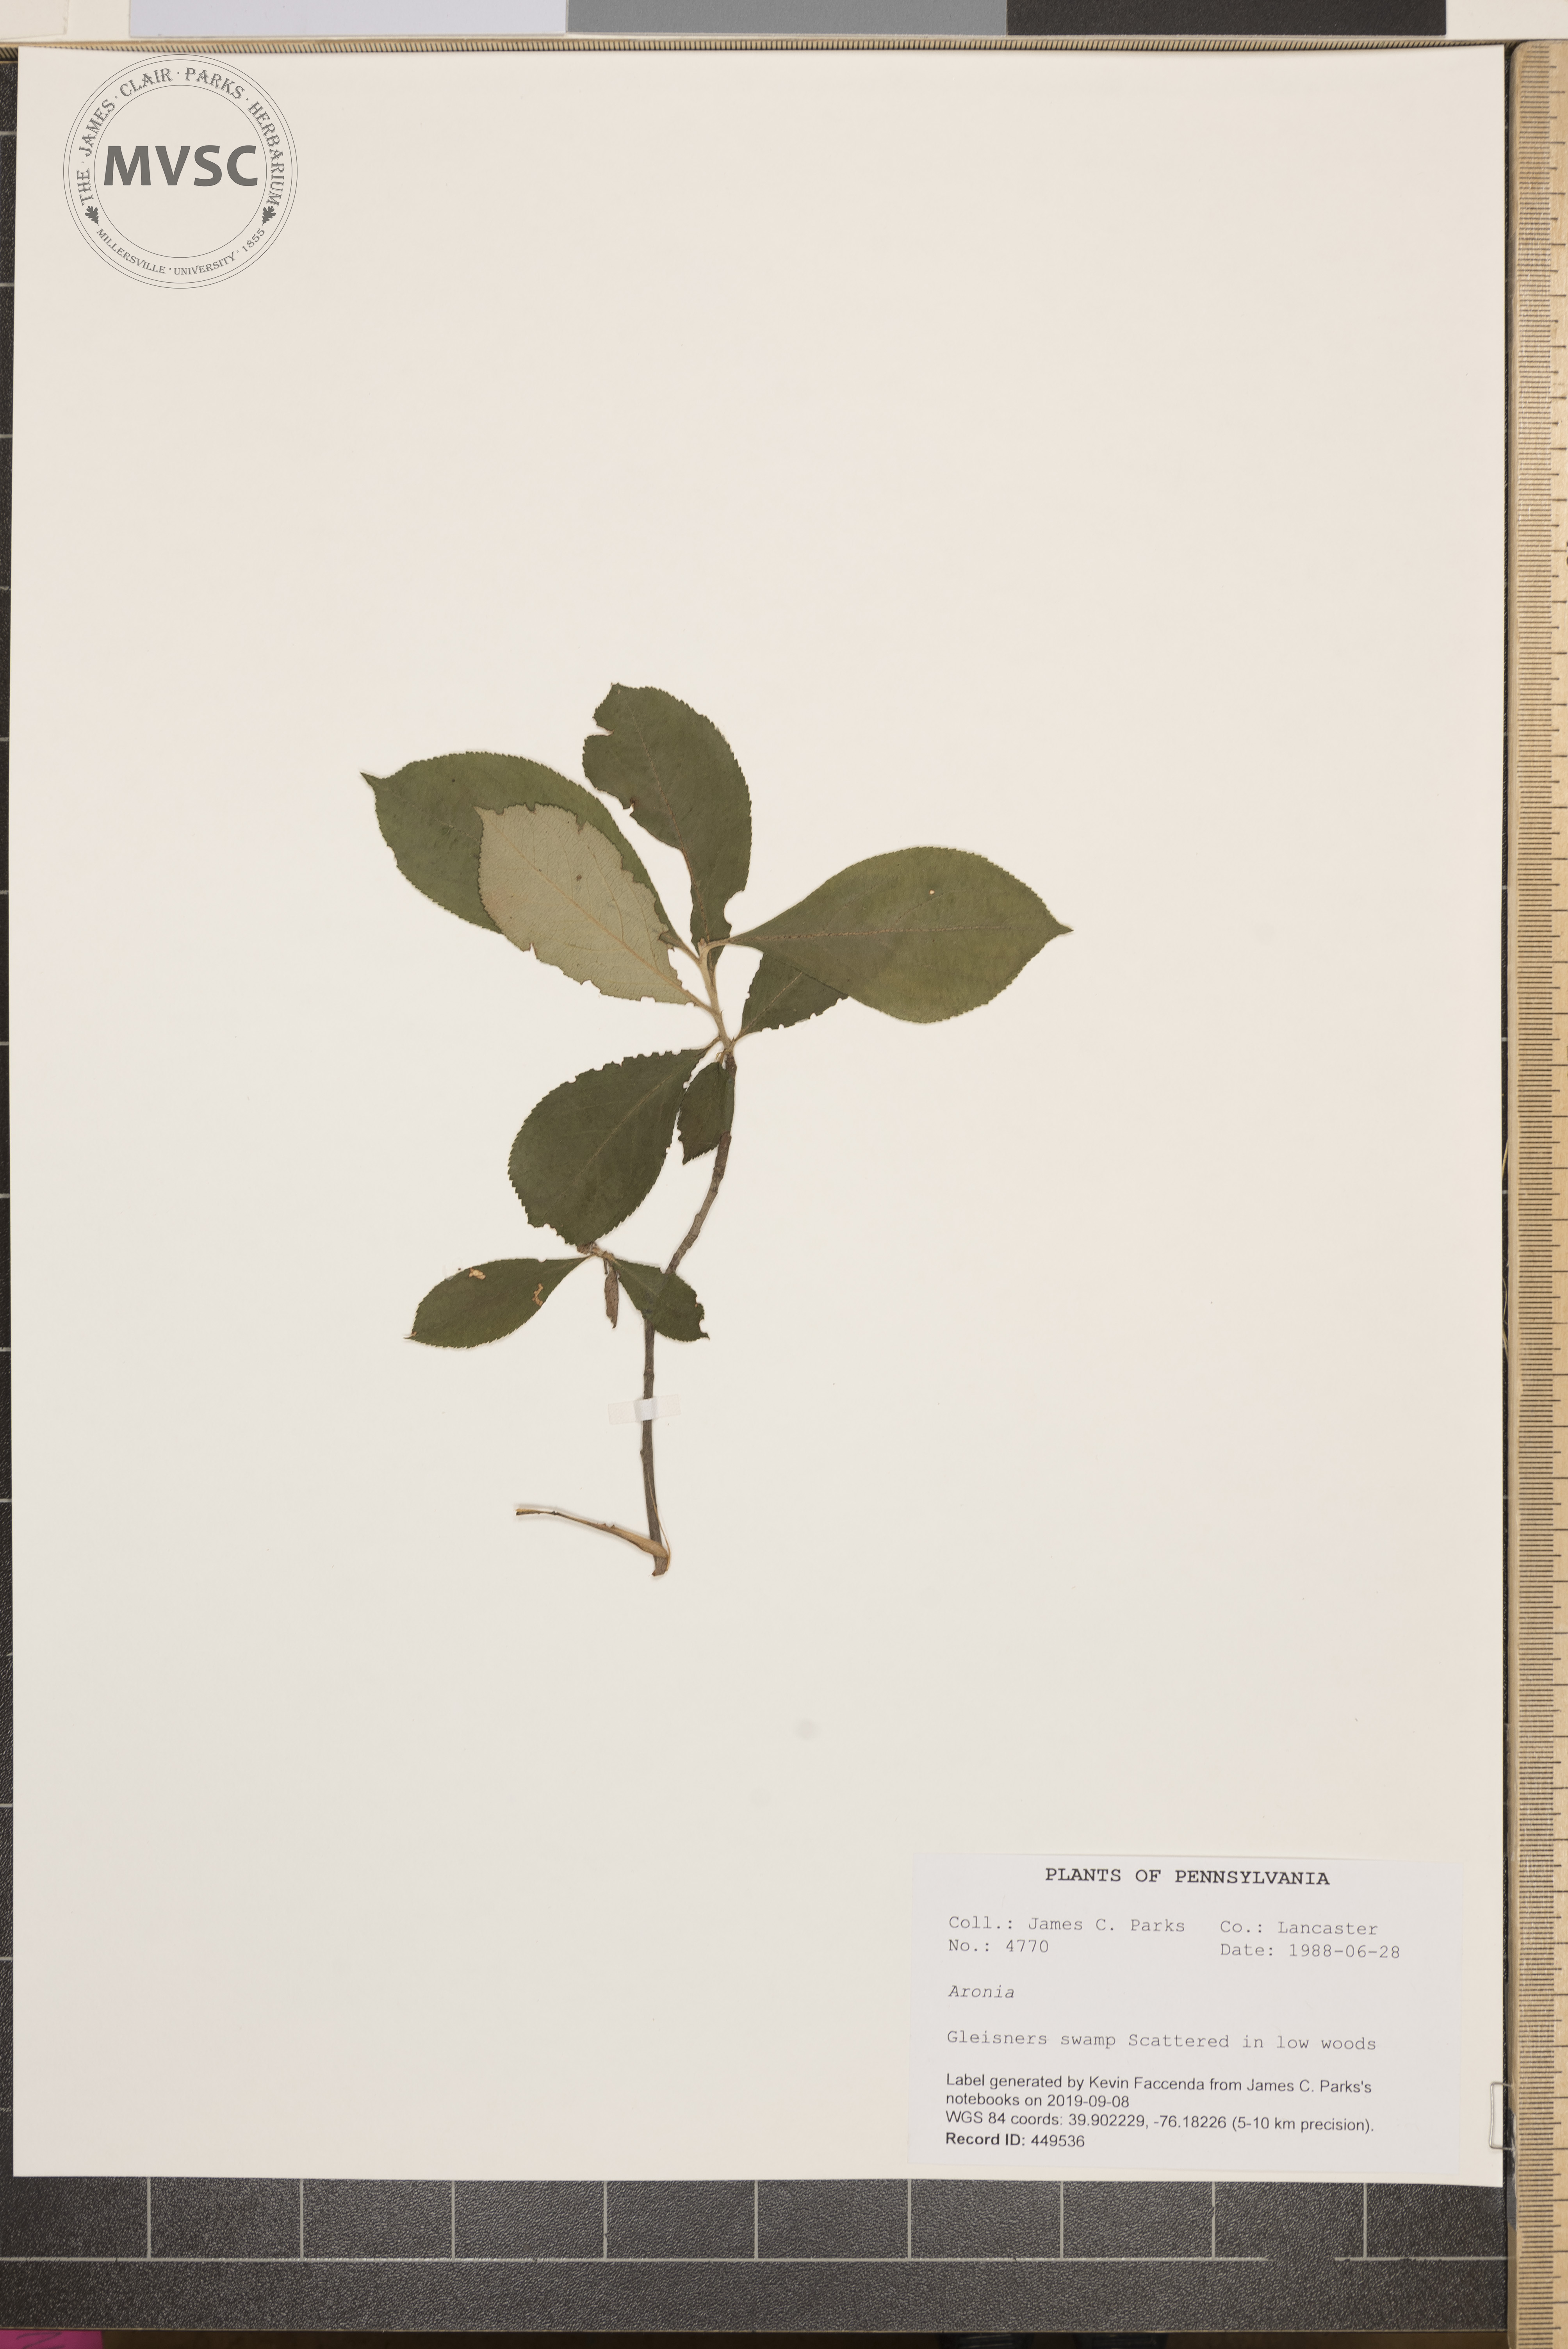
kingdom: Plantae
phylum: Tracheophyta
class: Magnoliopsida
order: Rosales
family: Rosaceae
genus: Aronia
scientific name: Aronia arbutifolia
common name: Red chokeberry
